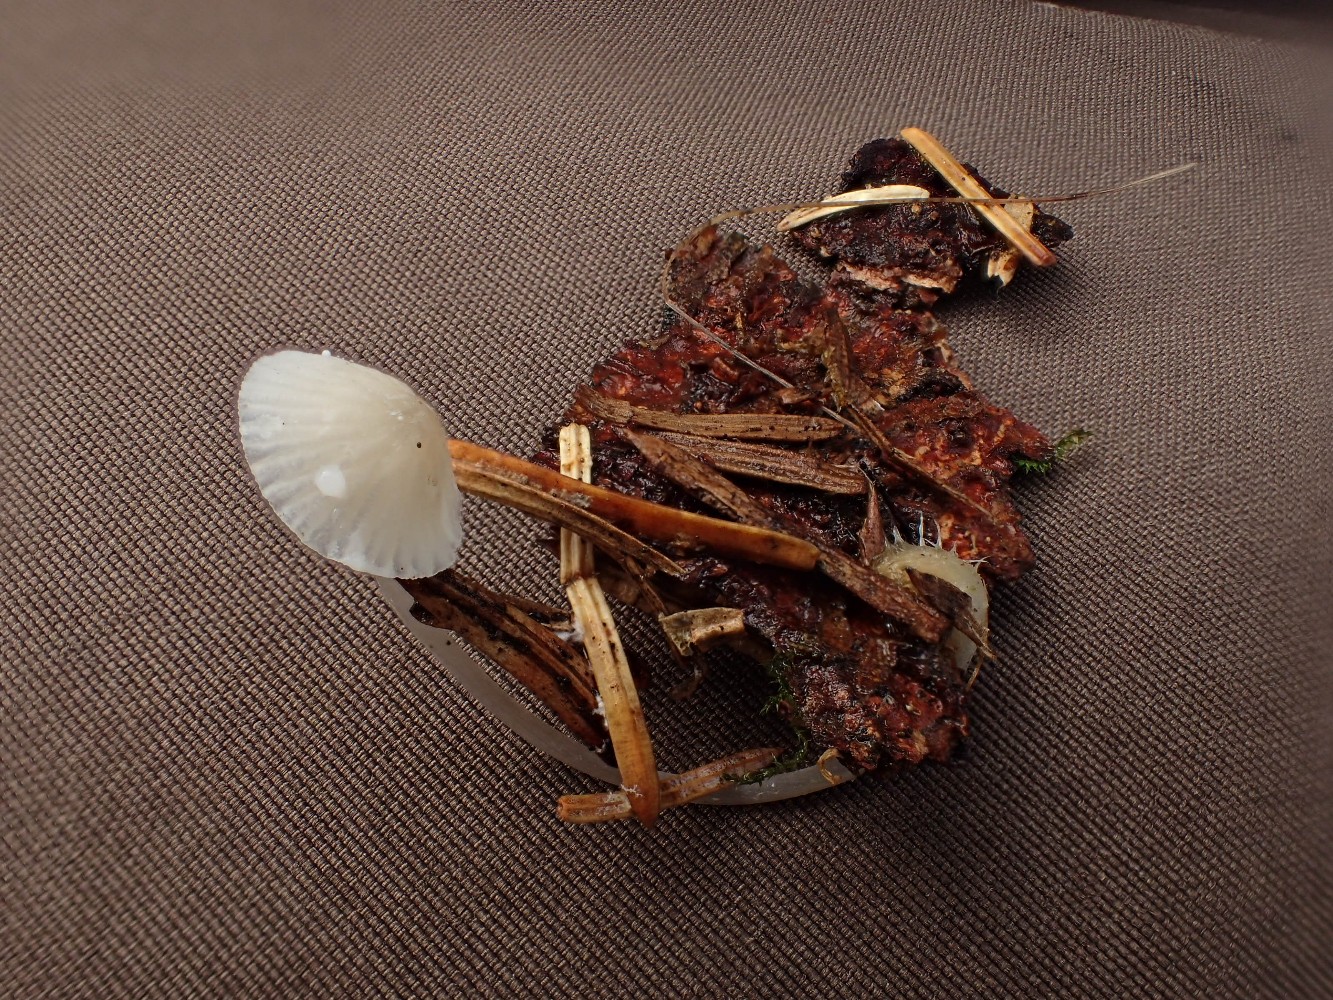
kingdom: Fungi
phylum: Basidiomycota
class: Agaricomycetes
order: Agaricales
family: Mycenaceae
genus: Mycena
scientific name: Mycena galopus
